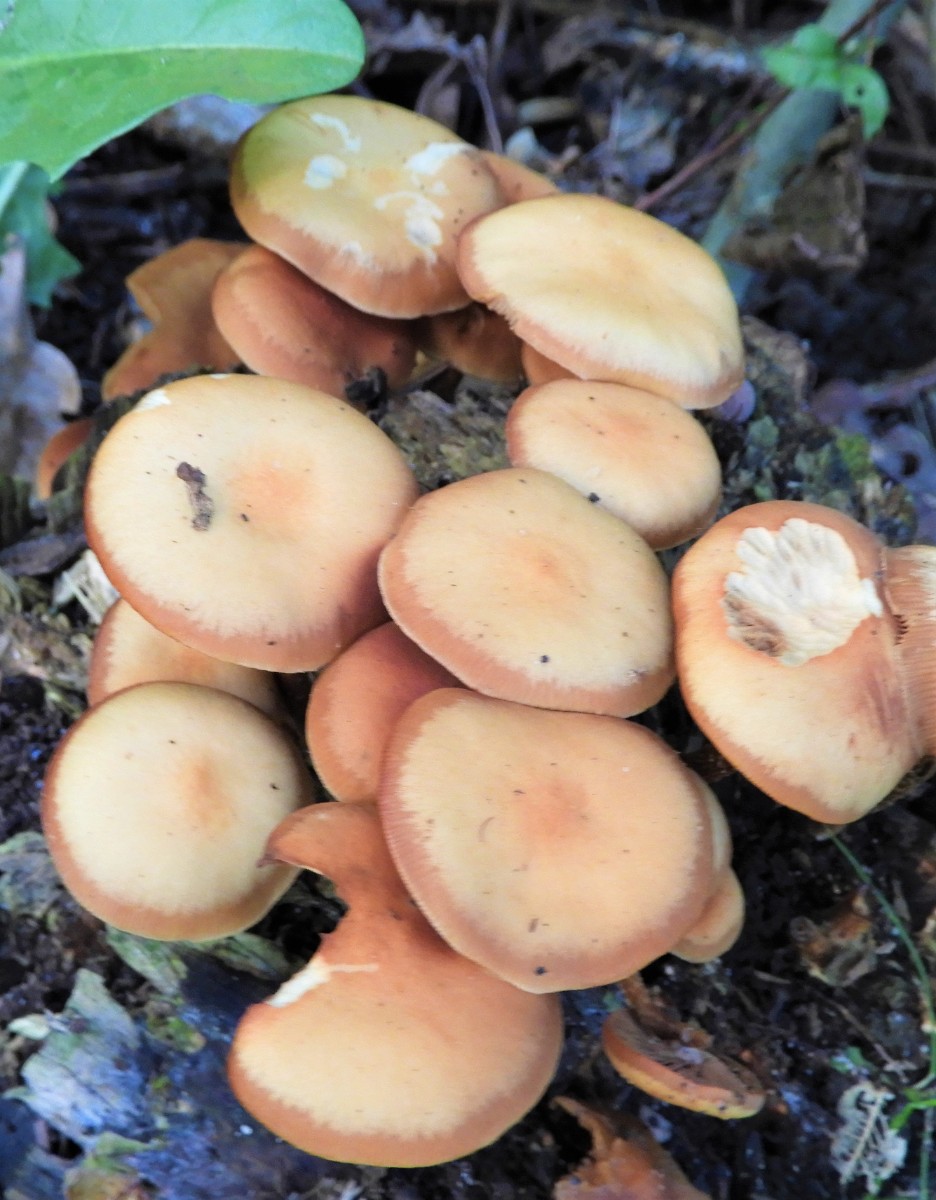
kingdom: Fungi
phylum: Basidiomycota
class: Agaricomycetes
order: Agaricales
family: Strophariaceae
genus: Kuehneromyces
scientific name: Kuehneromyces mutabilis
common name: foranderlig skælhat
